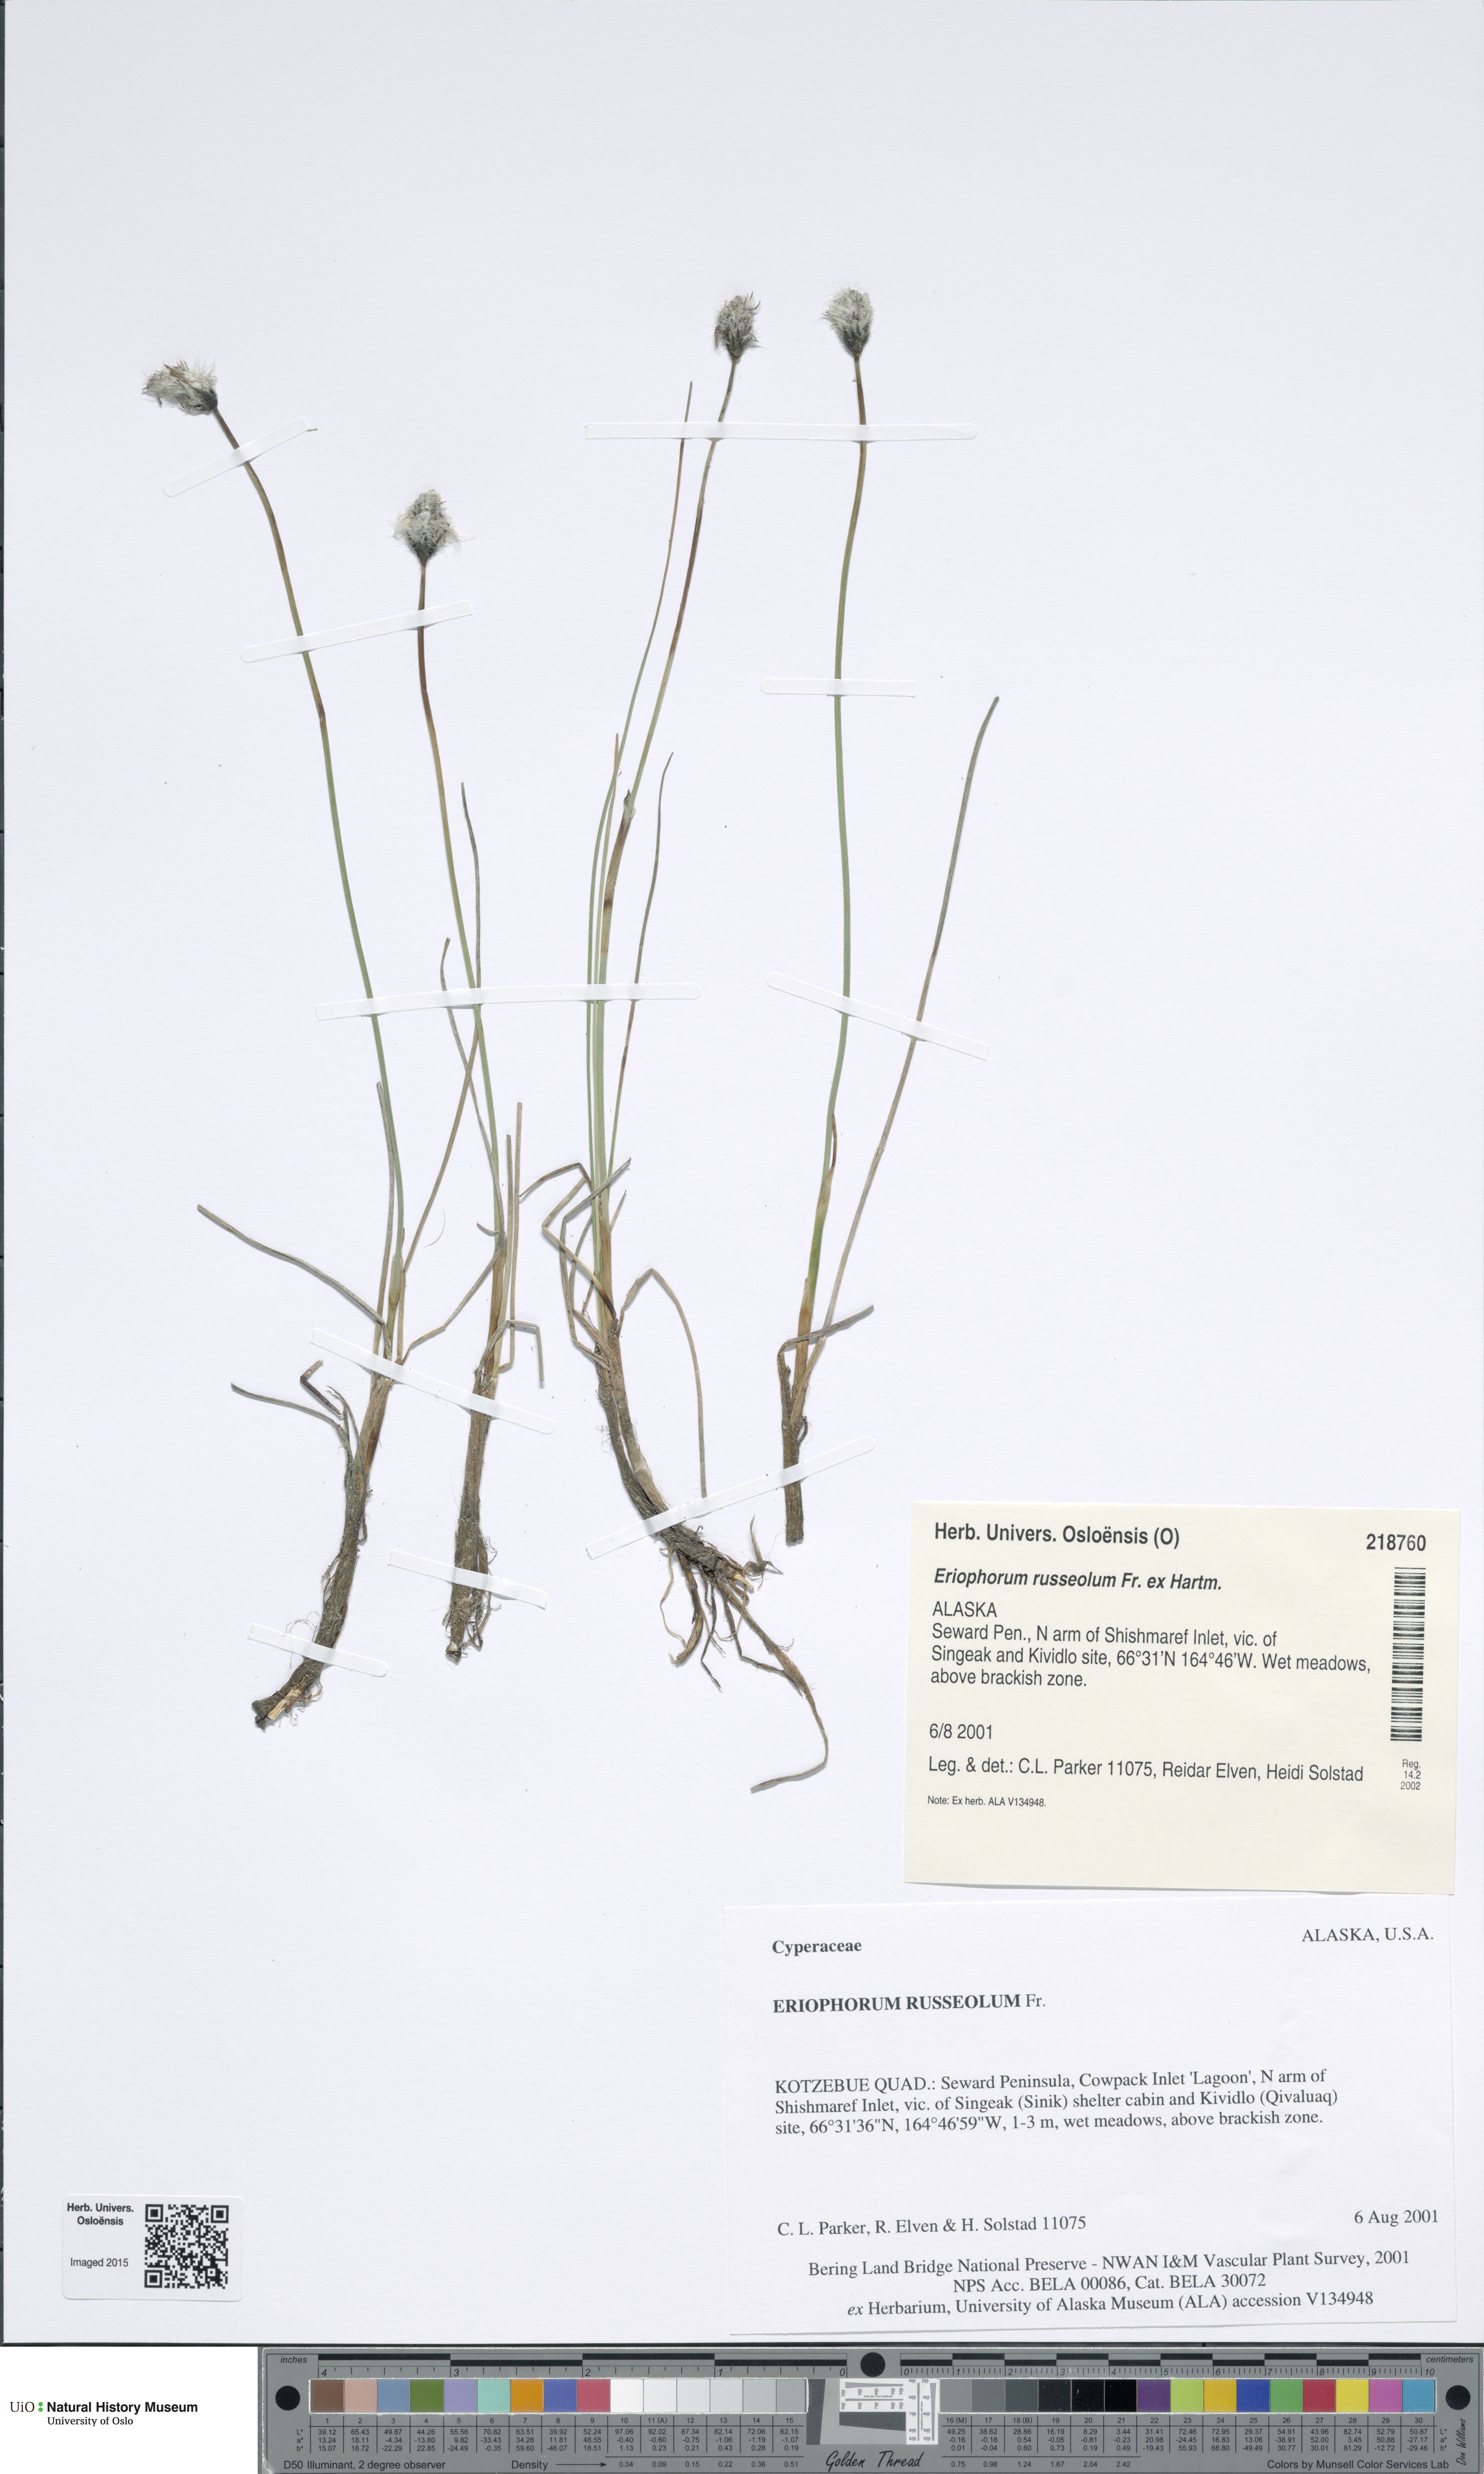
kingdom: Plantae
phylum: Tracheophyta
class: Liliopsida
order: Poales
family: Cyperaceae
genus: Eriophorum
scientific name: Eriophorum russeolum
